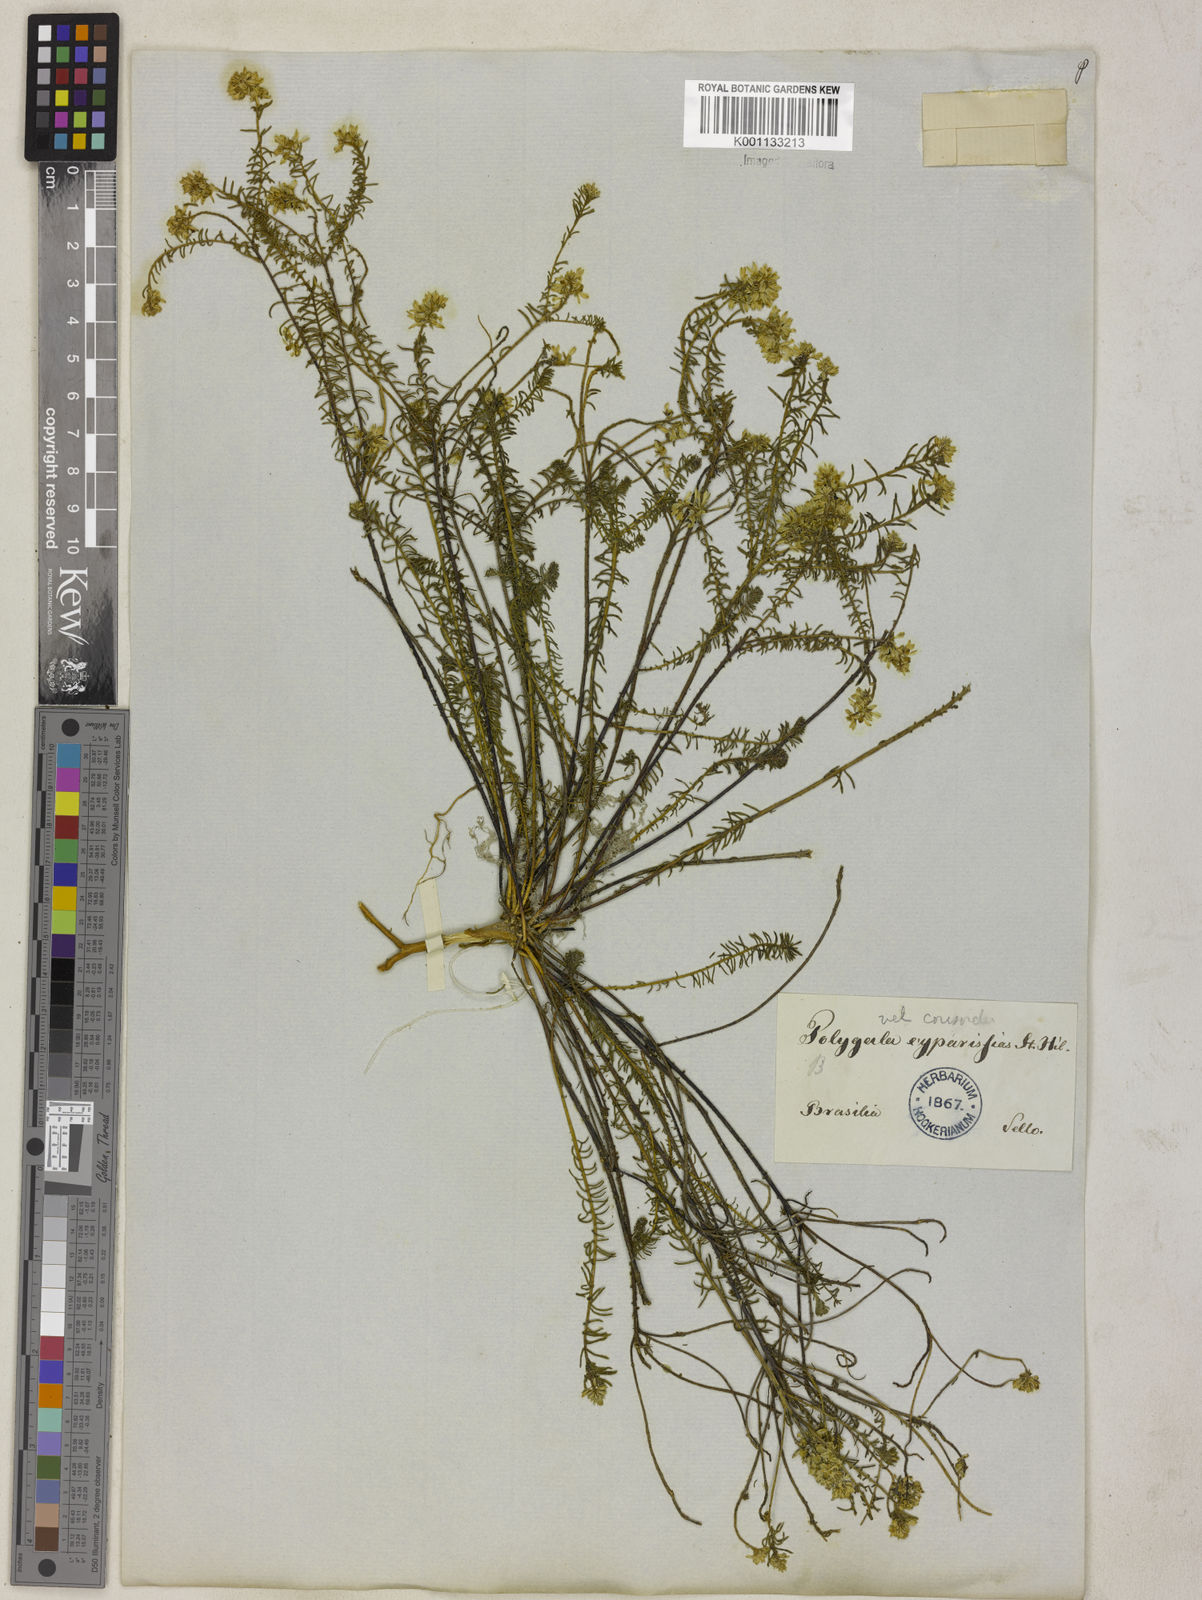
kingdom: Plantae
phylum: Tracheophyta
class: Magnoliopsida
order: Fabales
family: Polygalaceae
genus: Polygala
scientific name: Polygala cyparissias
